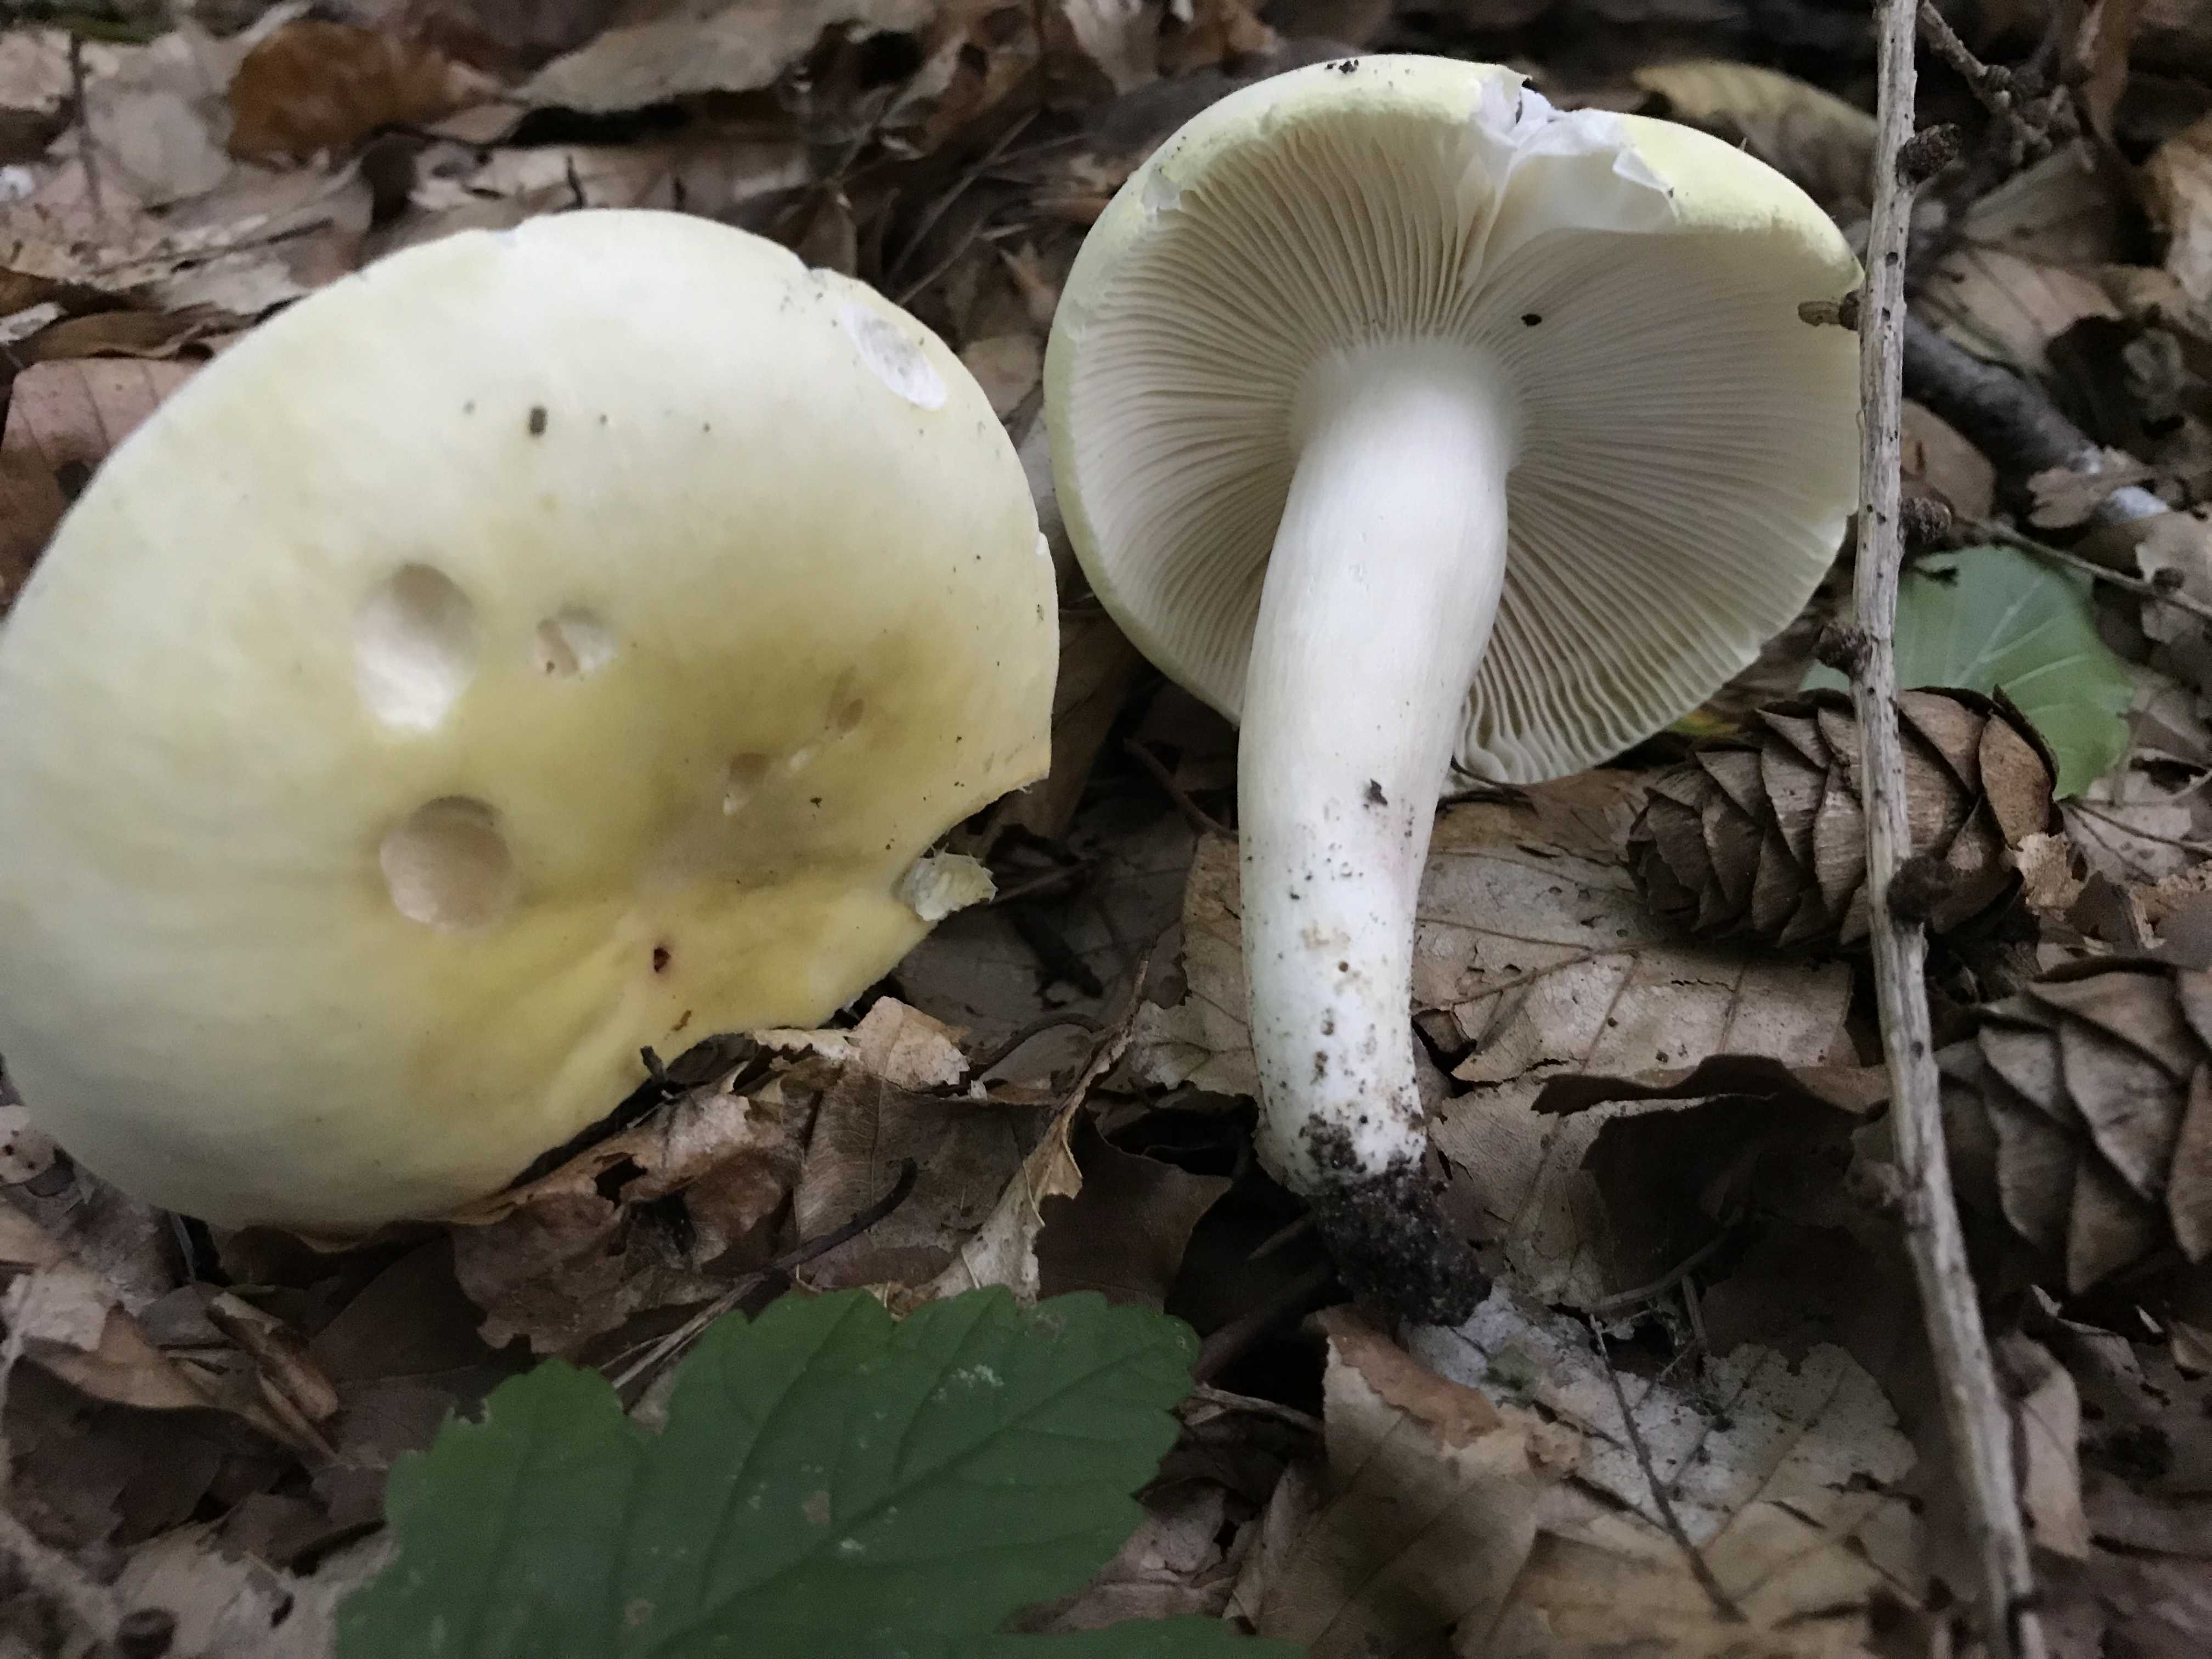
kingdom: Fungi
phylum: Basidiomycota
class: Agaricomycetes
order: Russulales
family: Russulaceae
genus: Russula
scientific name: Russula violeipes
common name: ferskengul skørhat
